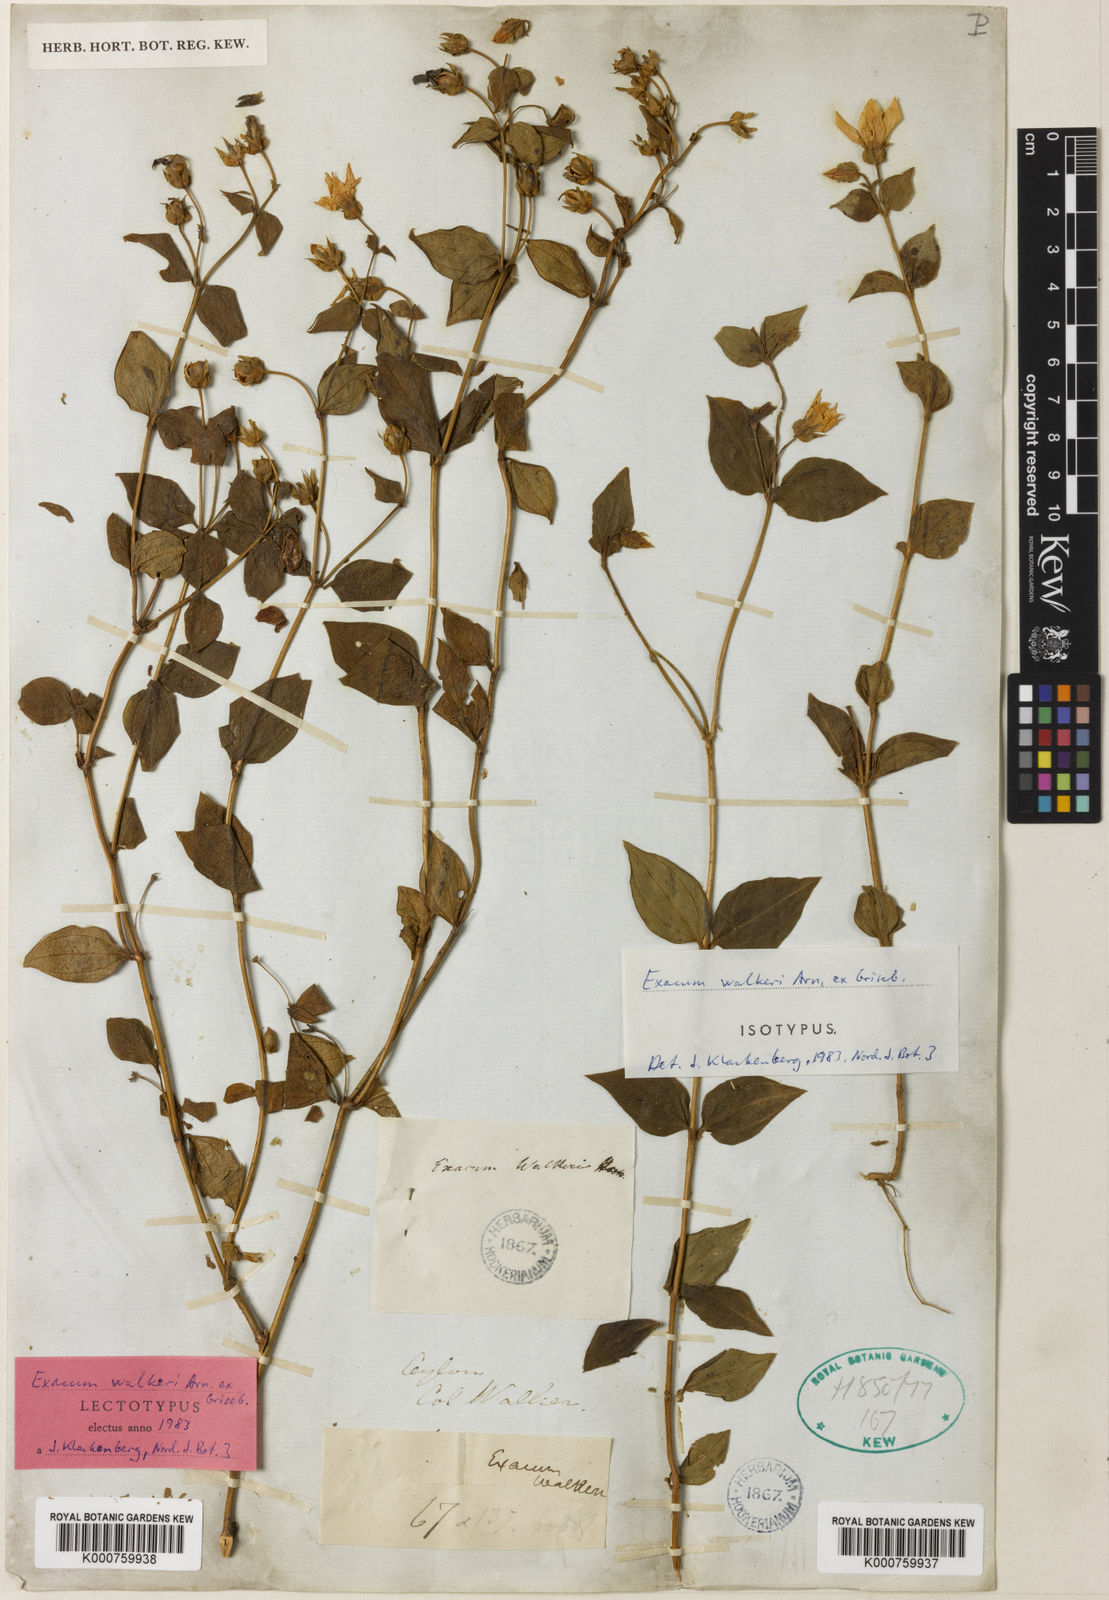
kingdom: Plantae
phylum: Tracheophyta
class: Magnoliopsida
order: Gentianales
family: Gentianaceae
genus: Exacum
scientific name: Exacum walkeri
